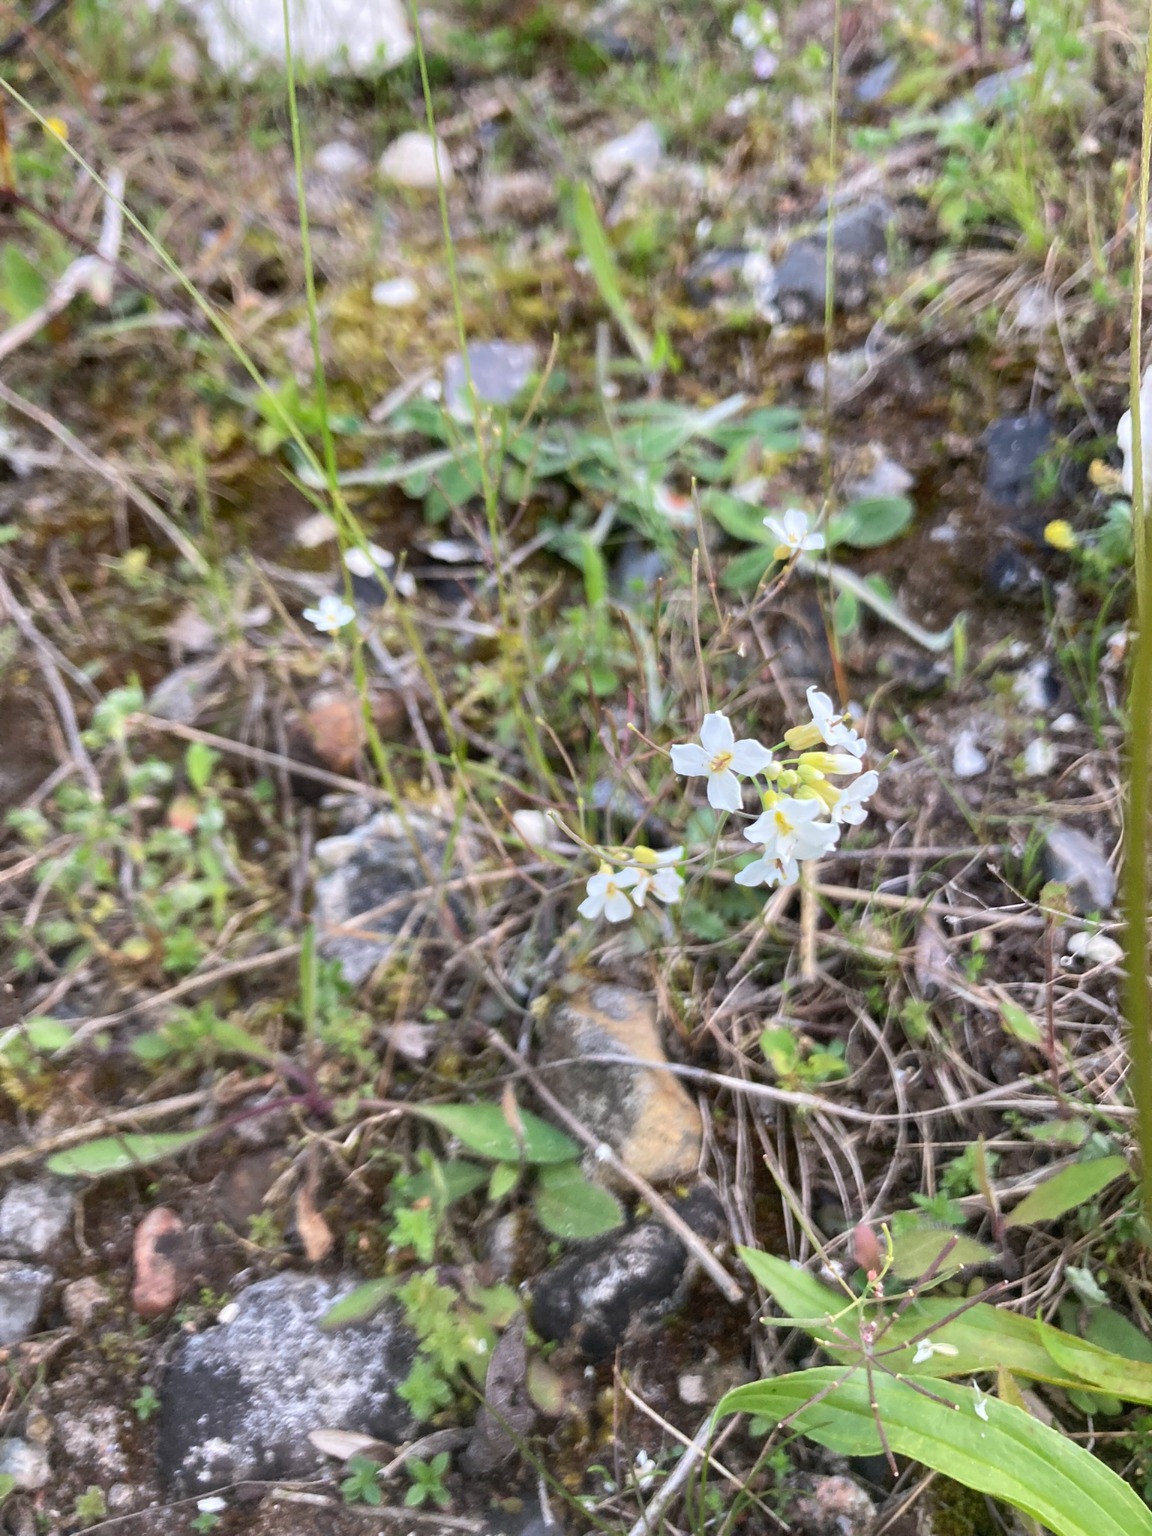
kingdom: Plantae
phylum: Tracheophyta
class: Magnoliopsida
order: Brassicales
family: Brassicaceae
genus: Arabidopsis
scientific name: Arabidopsis suecica
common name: Svensk gåsemad
